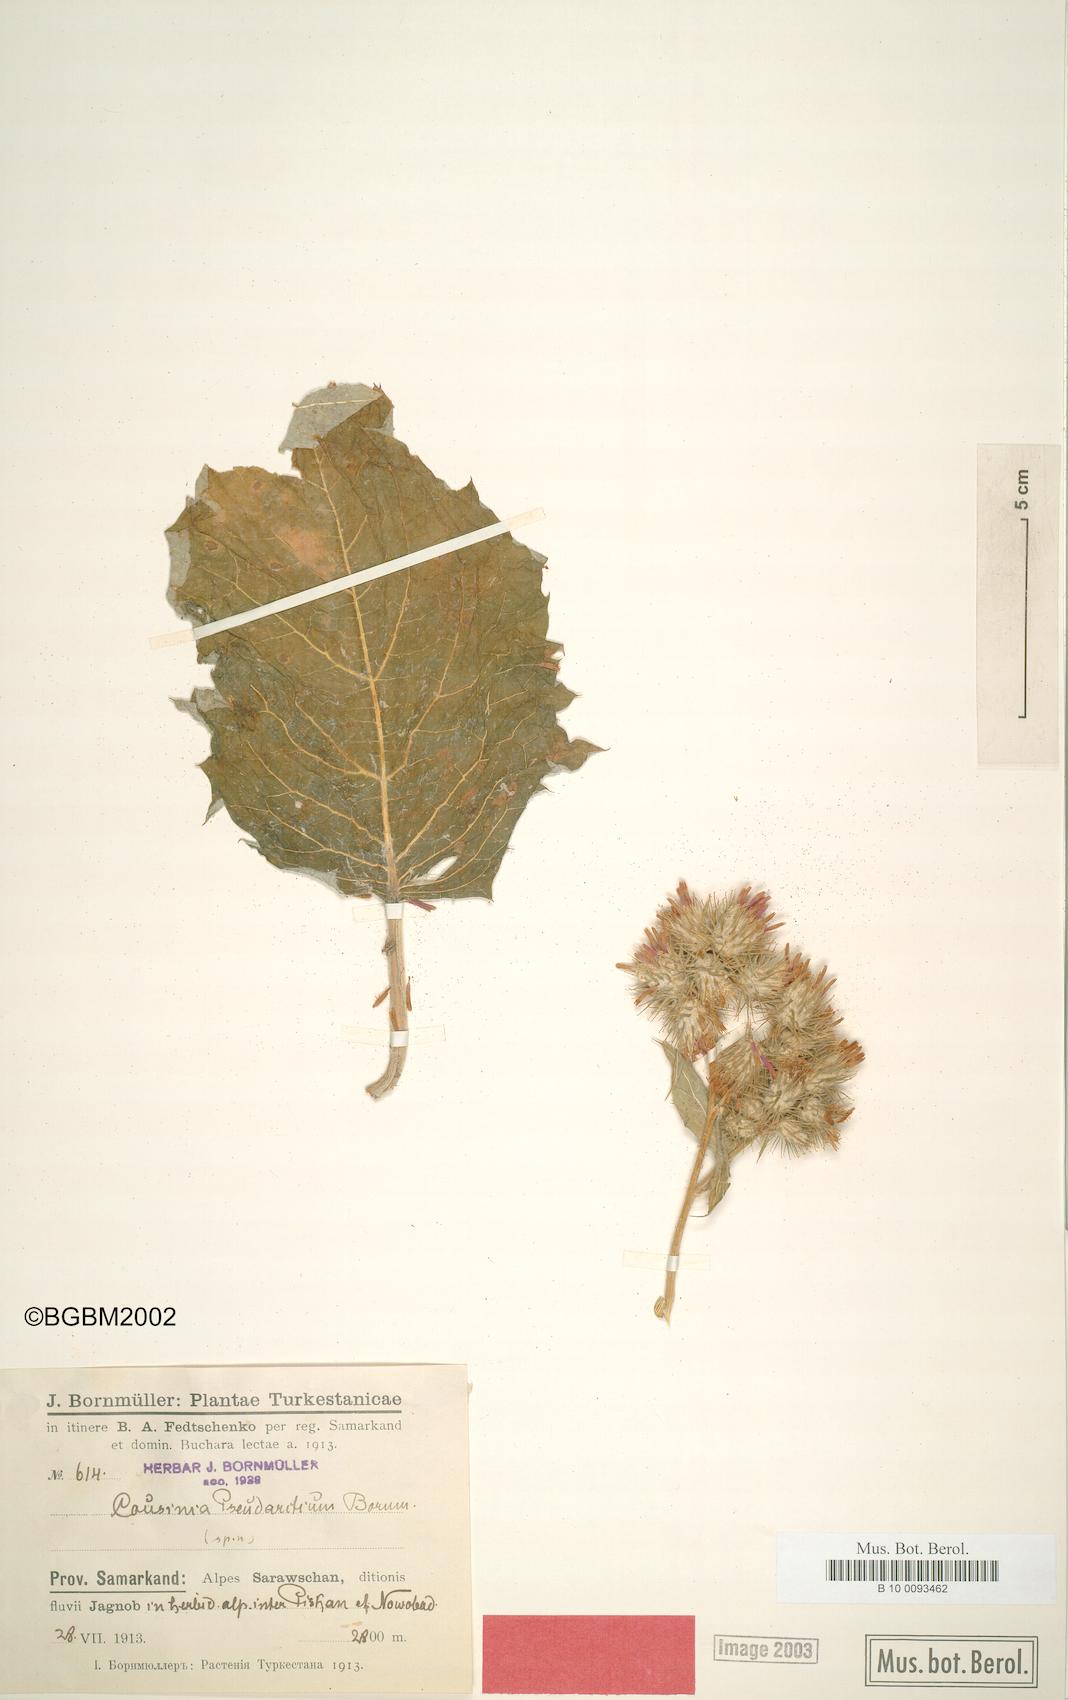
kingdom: Plantae
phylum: Tracheophyta
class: Magnoliopsida
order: Asterales
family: Asteraceae
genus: Arctium
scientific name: Arctium pseudarctium
